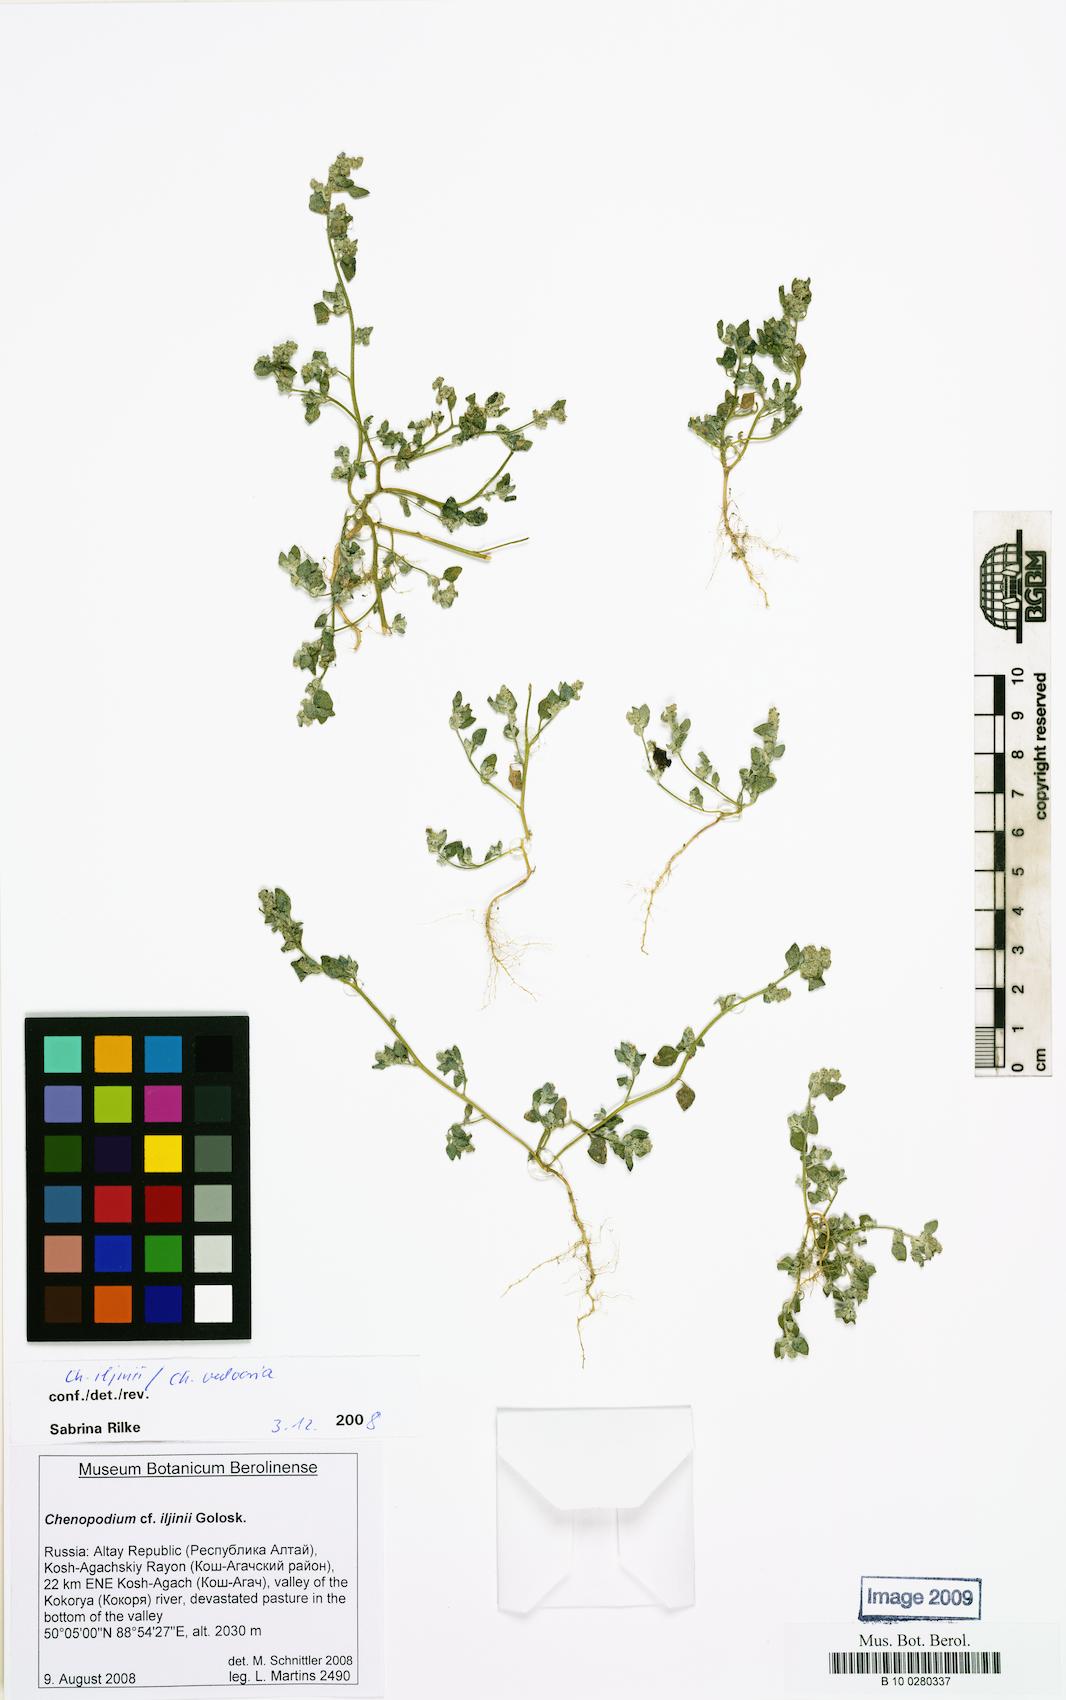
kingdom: Plantae
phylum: Tracheophyta
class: Magnoliopsida
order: Caryophyllales
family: Amaranthaceae
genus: Chenopodium
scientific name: Chenopodium iljinii
